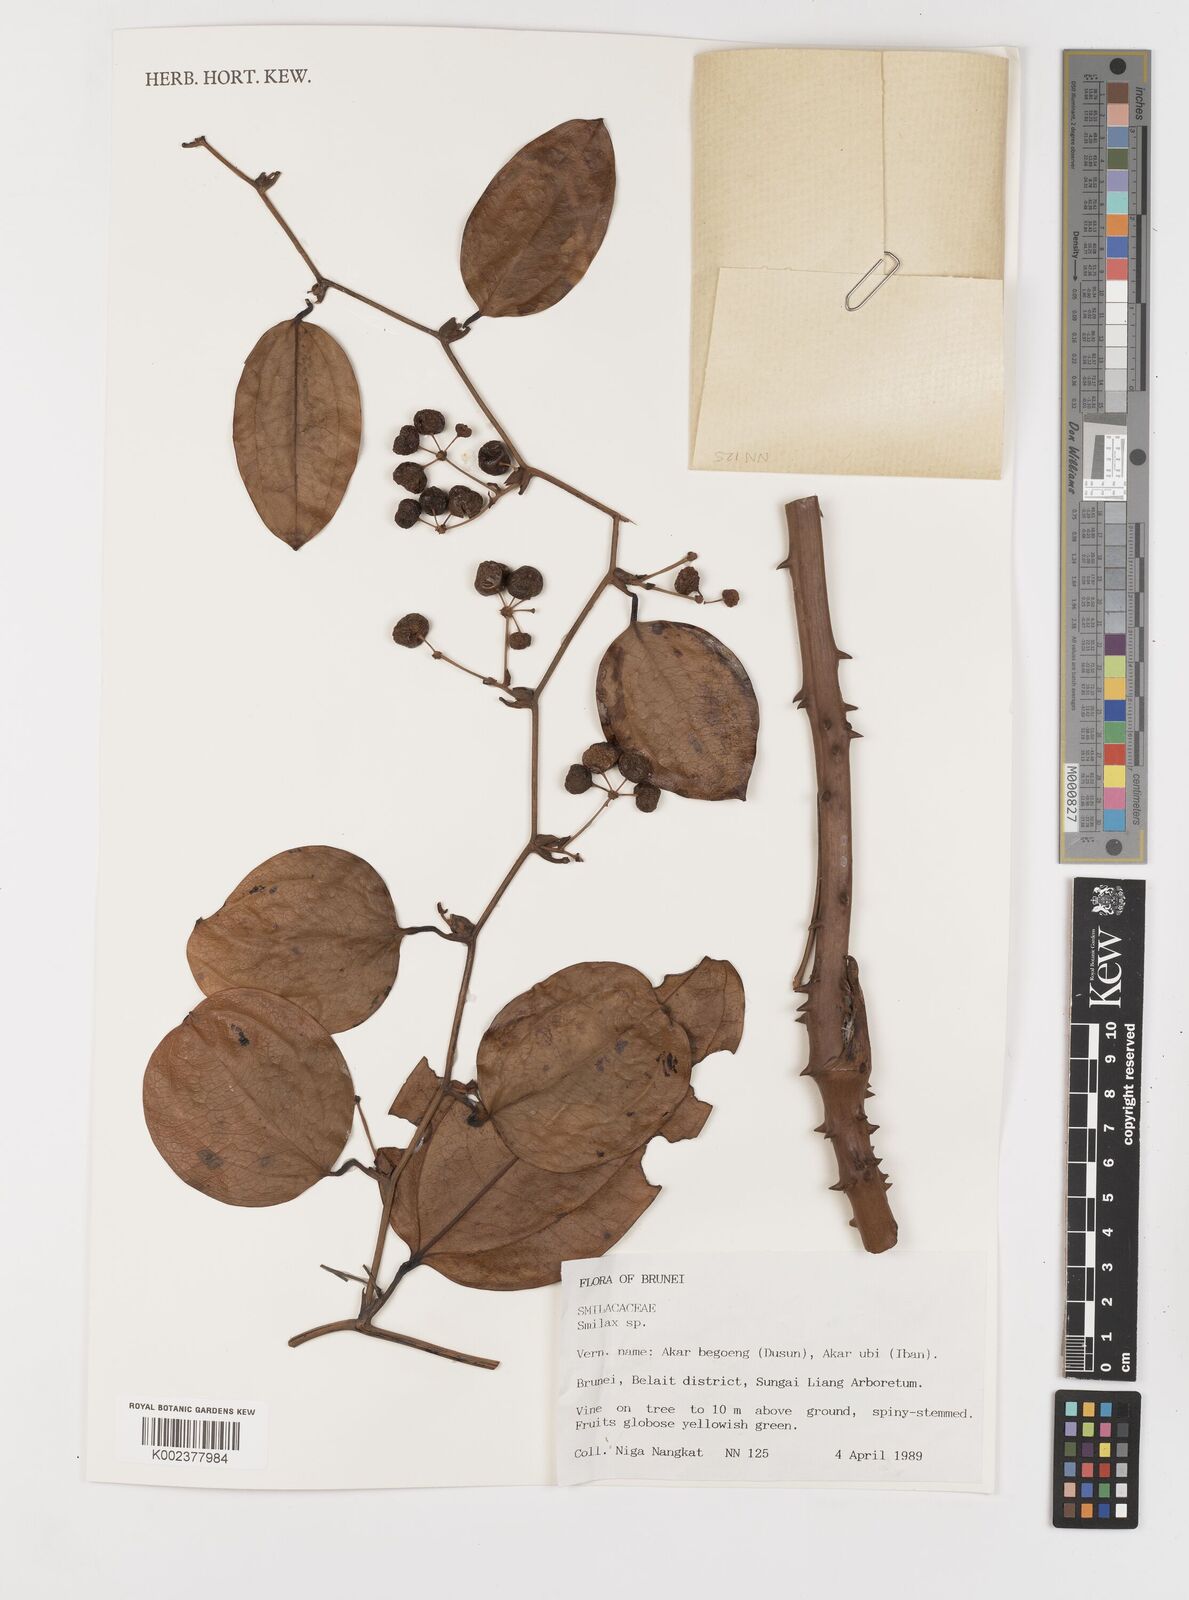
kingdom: Plantae
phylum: Tracheophyta
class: Liliopsida
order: Liliales
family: Smilacaceae
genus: Smilax
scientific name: Smilax
